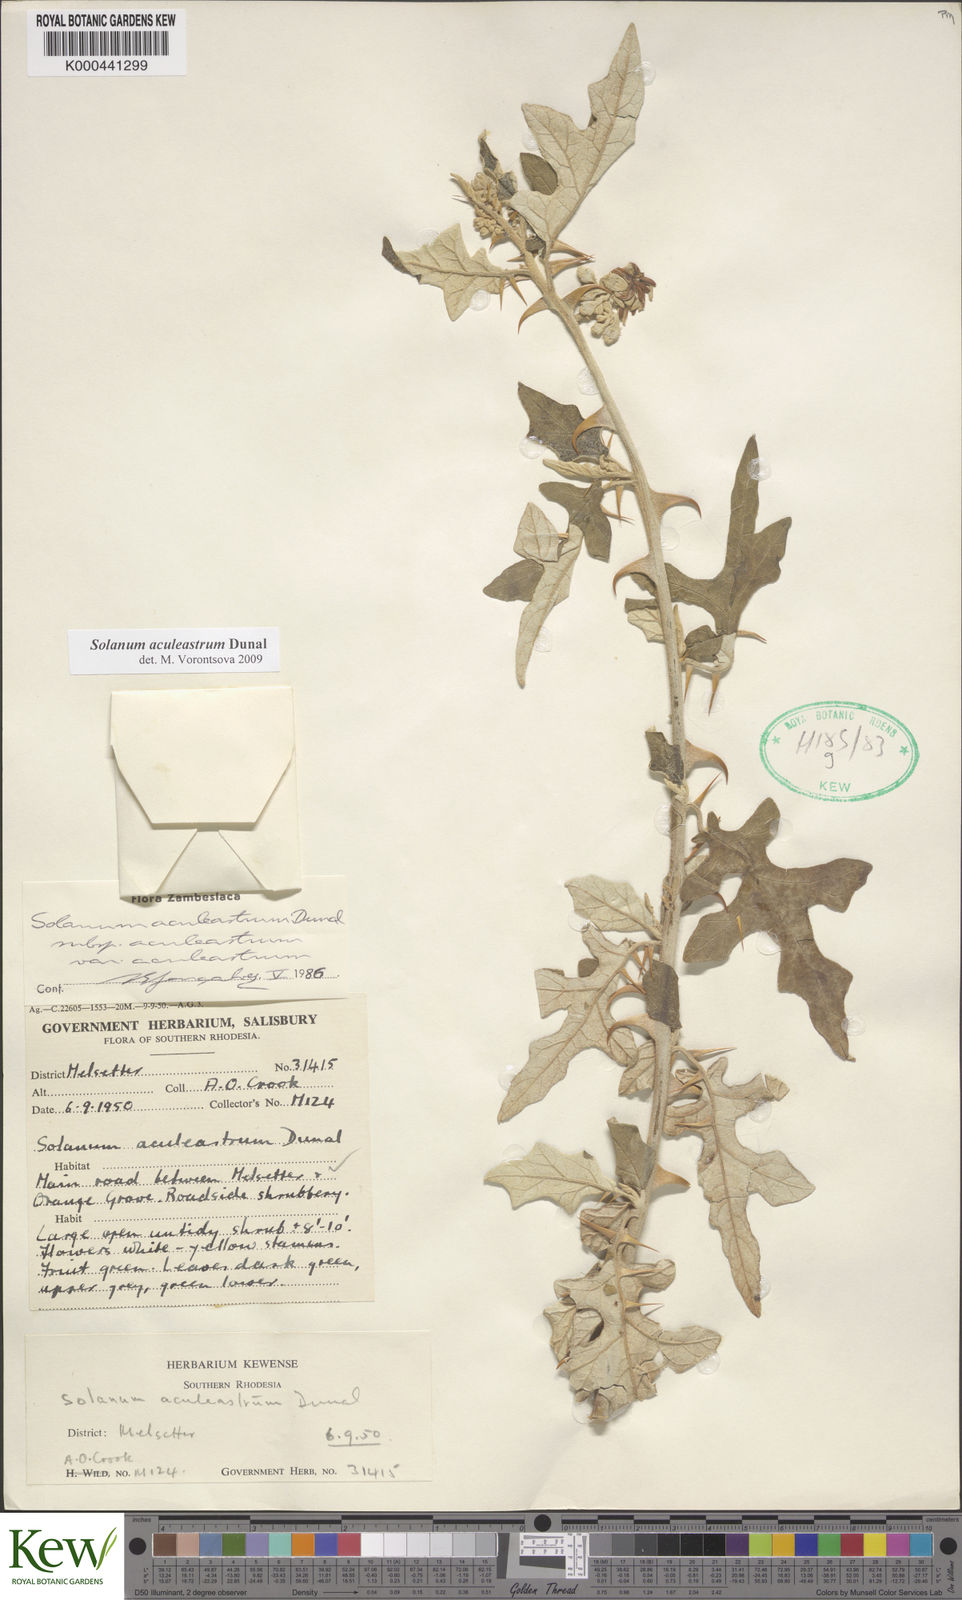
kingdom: Plantae
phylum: Tracheophyta
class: Magnoliopsida
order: Solanales
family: Solanaceae
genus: Solanum
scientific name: Solanum aculeastrum
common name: Goat bitter-apple
